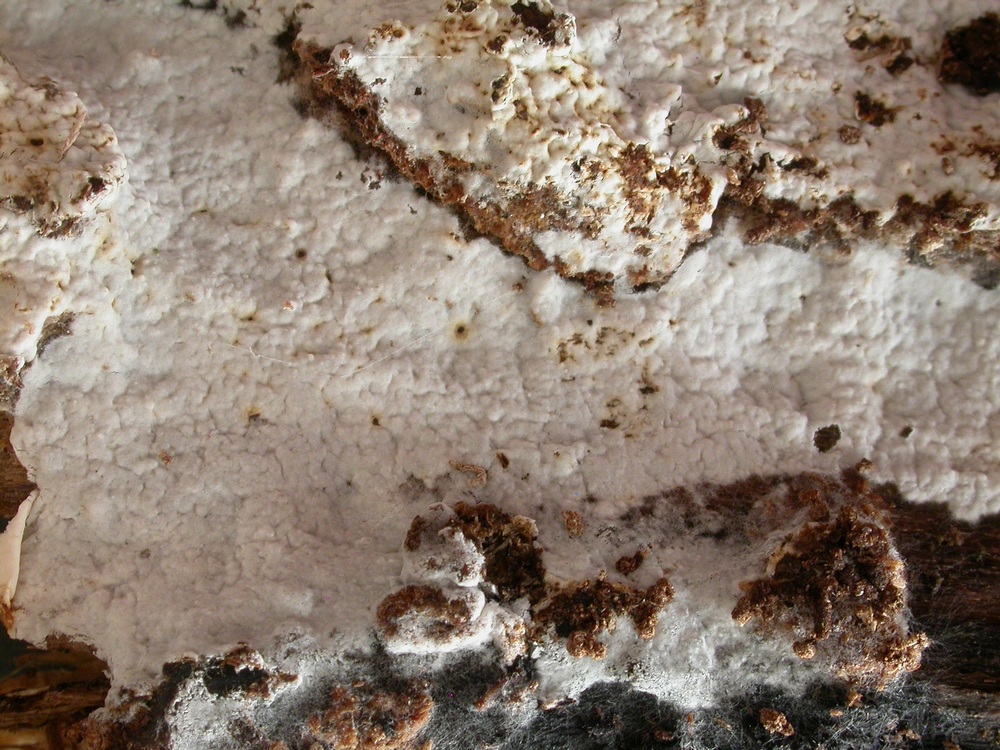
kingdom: Fungi
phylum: Basidiomycota
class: Agaricomycetes
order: Atheliales
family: Atheliaceae
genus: Athelia
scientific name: Athelia epiphylla
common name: almindelig barkhinde
